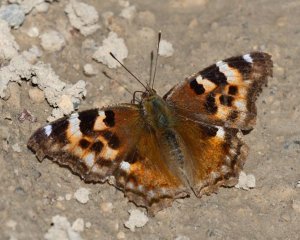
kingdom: Animalia
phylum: Arthropoda
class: Insecta
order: Lepidoptera
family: Nymphalidae
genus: Polygonia
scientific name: Polygonia vaualbum
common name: Compton Tortoiseshell
